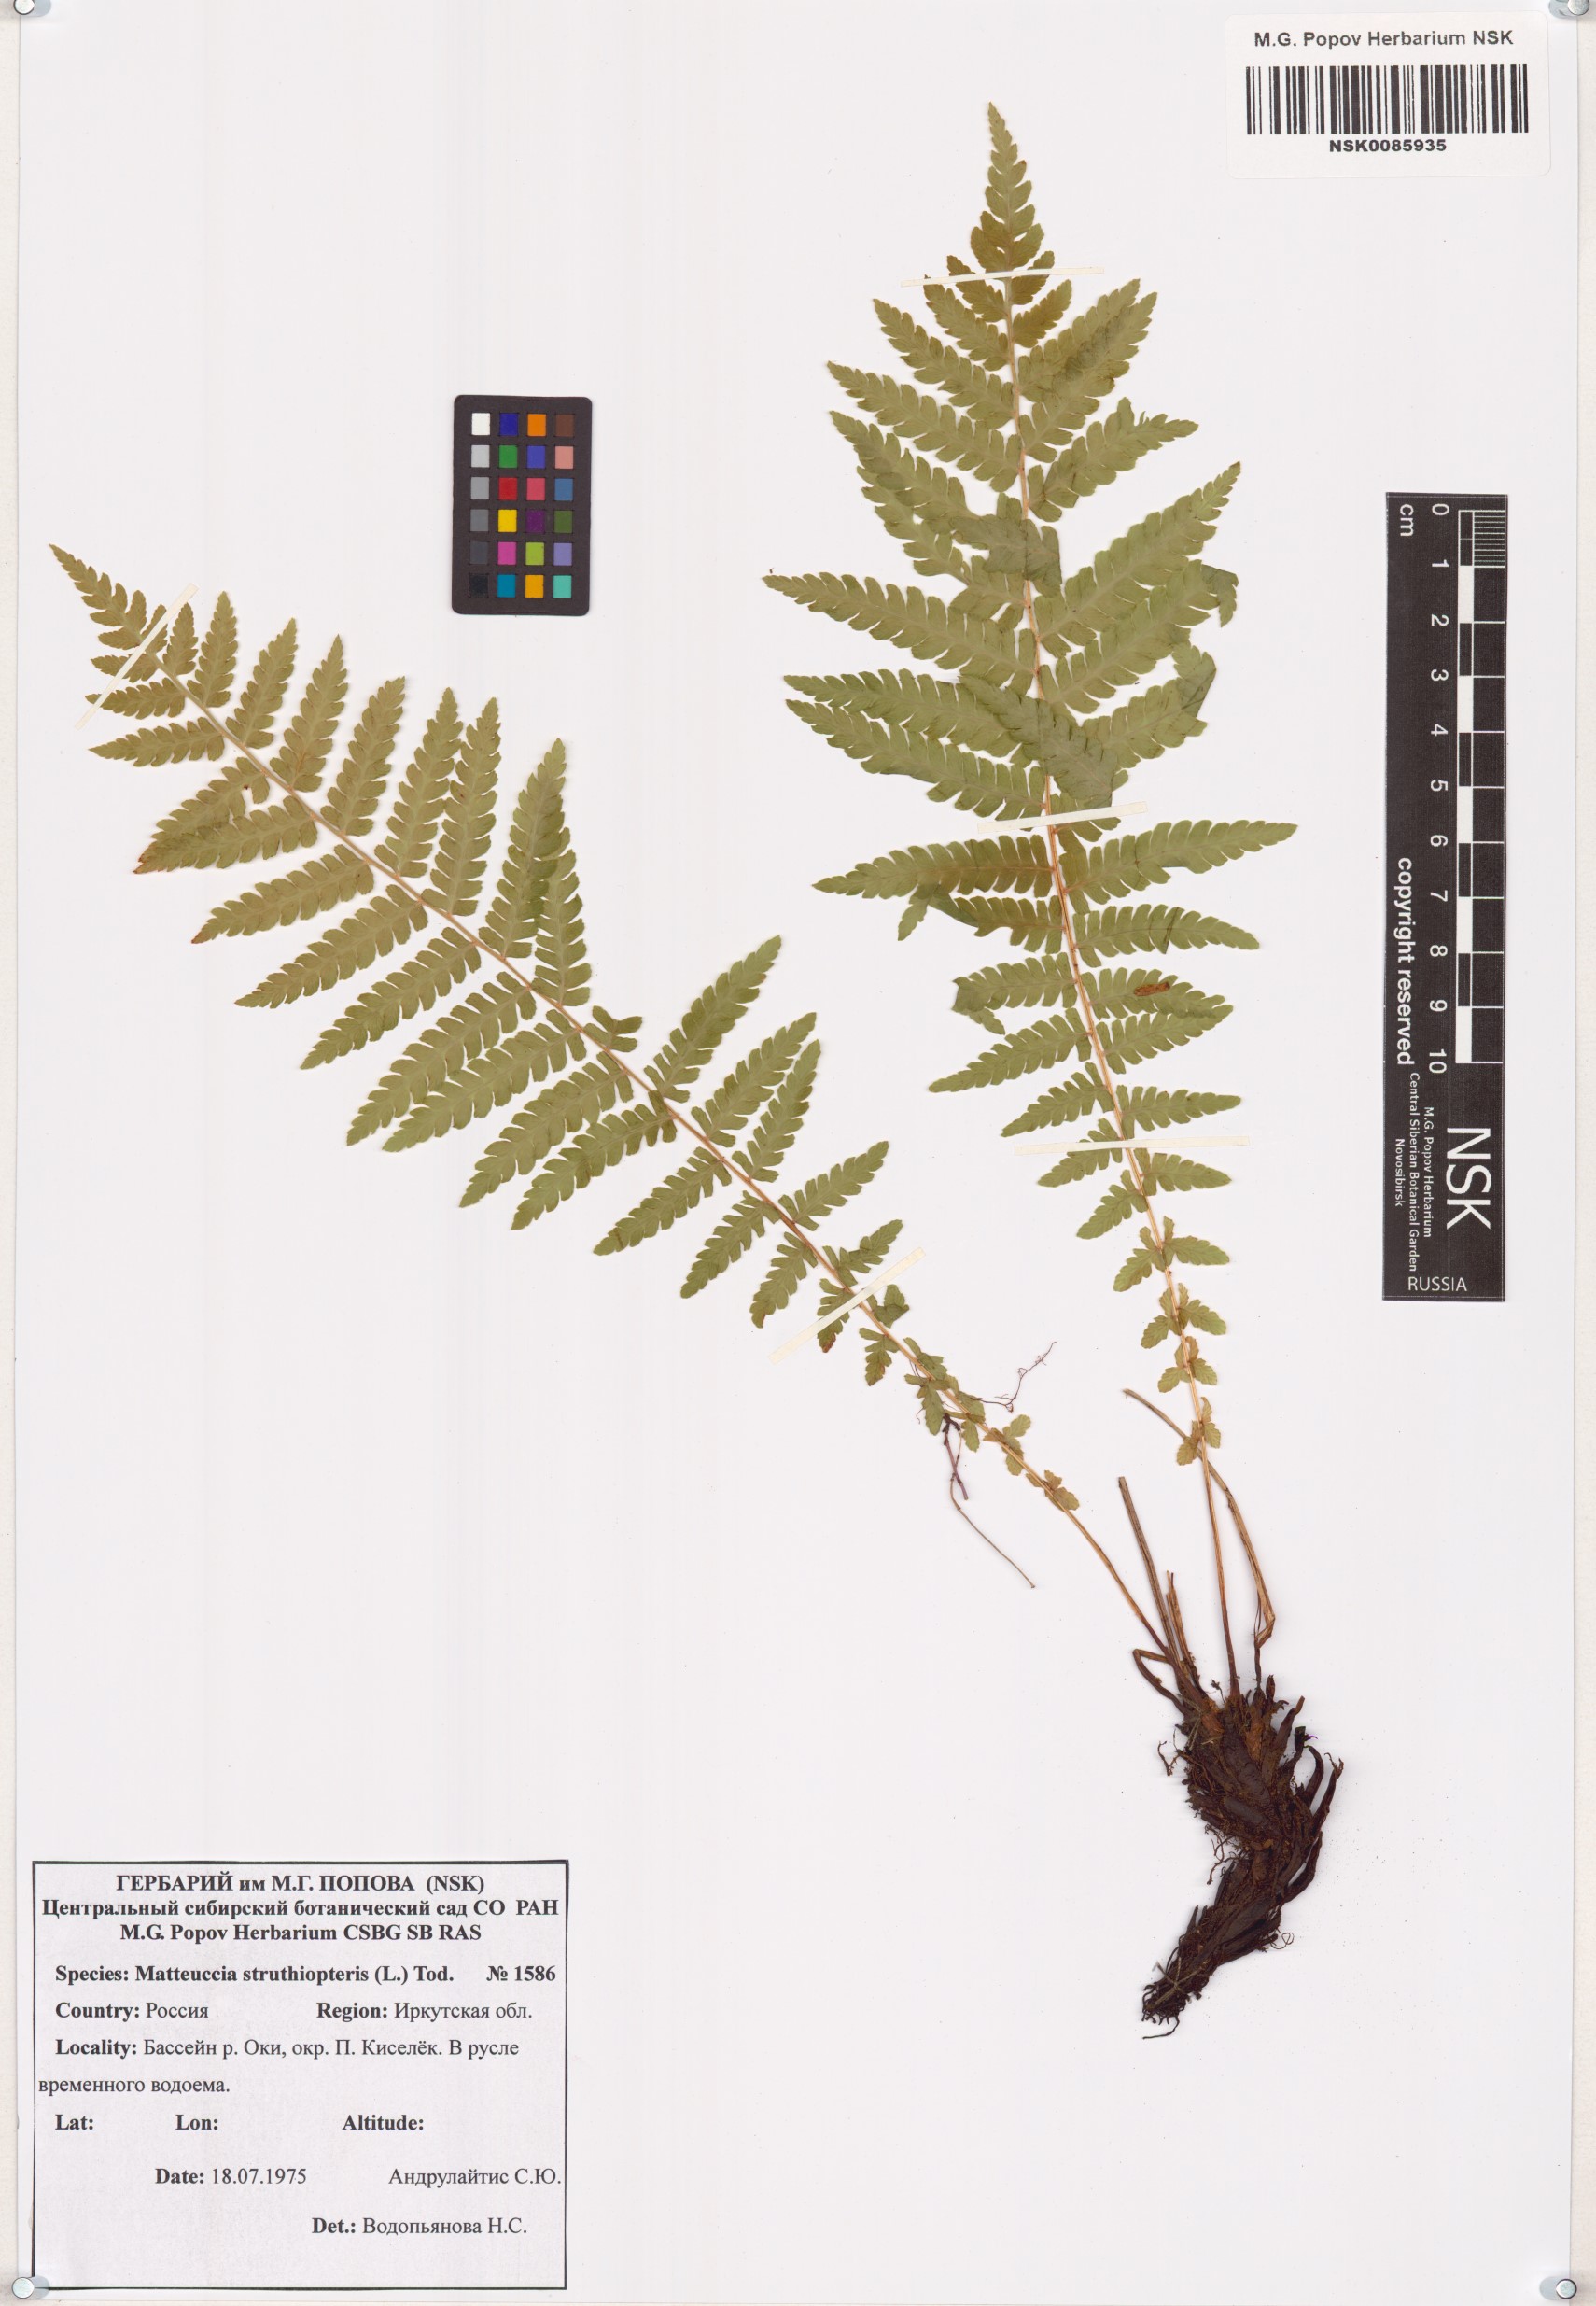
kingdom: Plantae
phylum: Tracheophyta
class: Polypodiopsida
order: Polypodiales
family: Onocleaceae
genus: Matteuccia
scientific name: Matteuccia struthiopteris
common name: Ostrich fern
